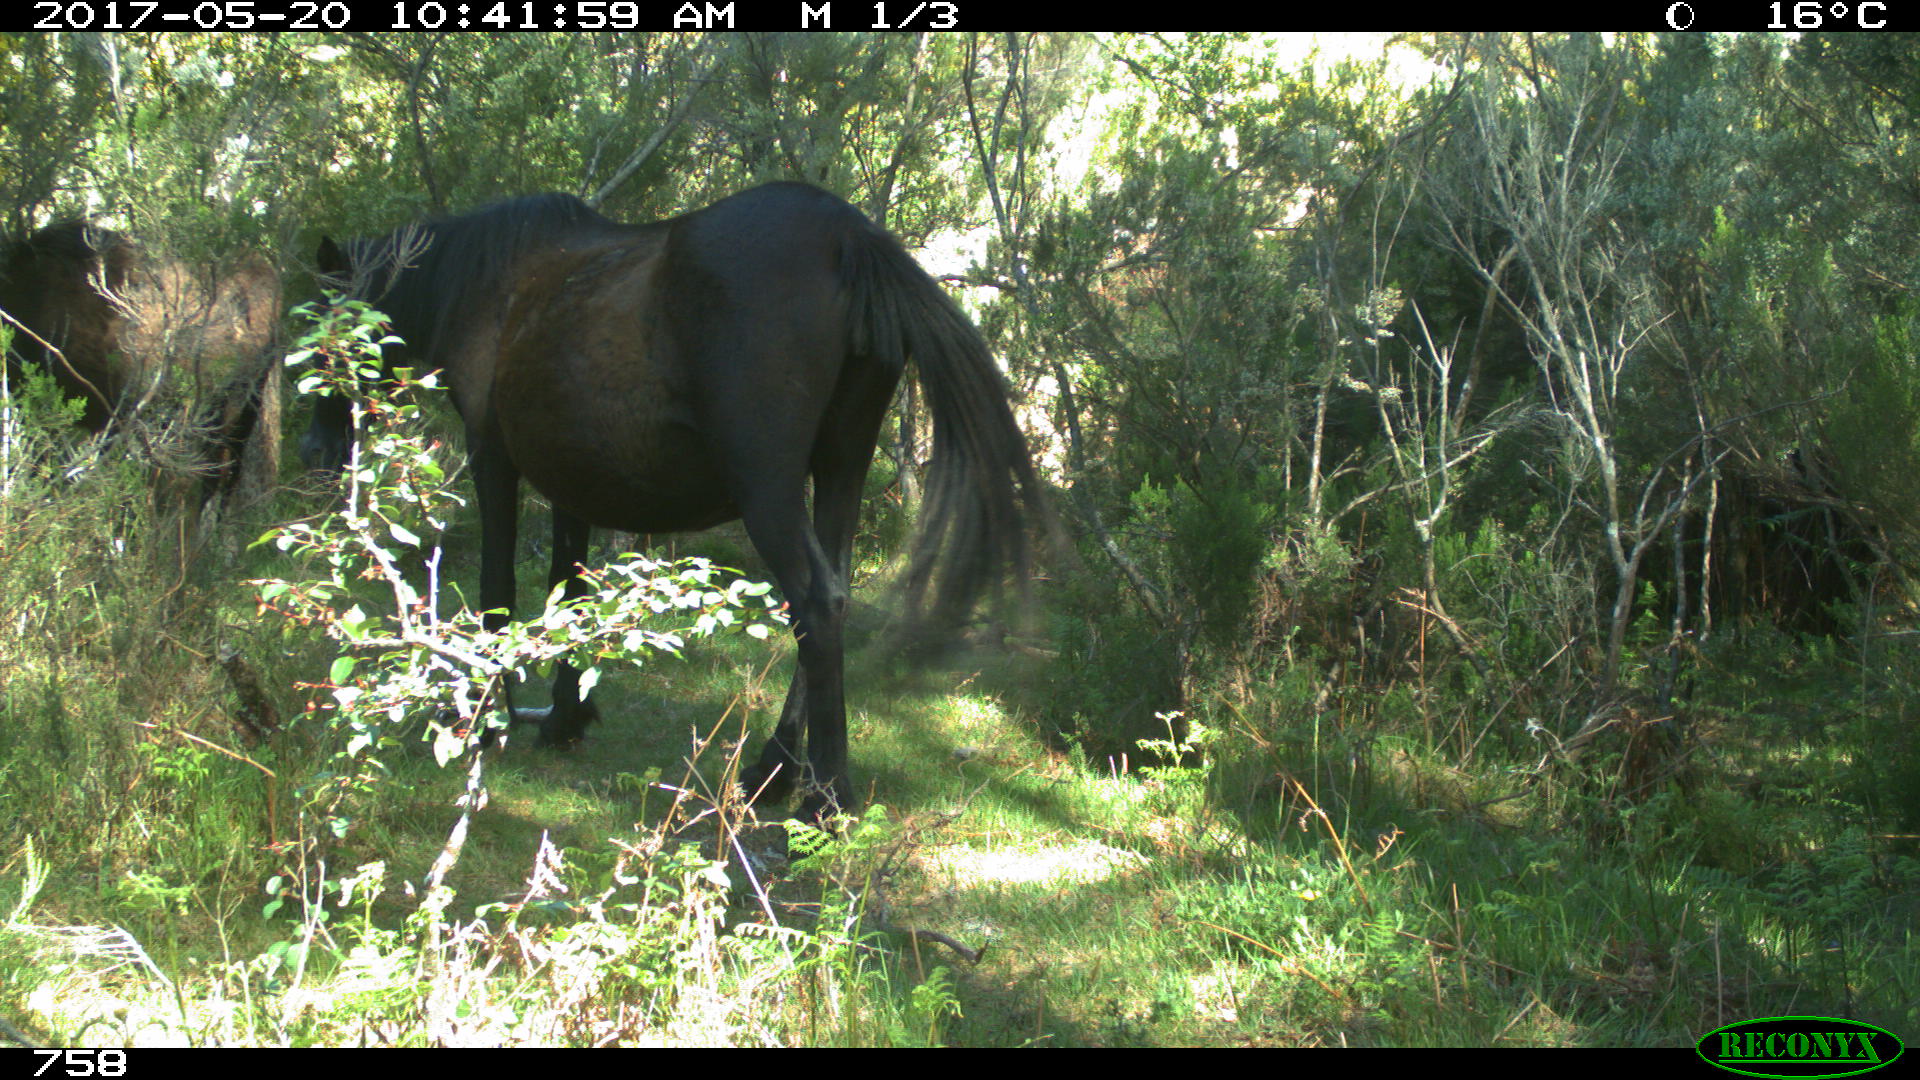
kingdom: Animalia
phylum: Chordata
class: Mammalia
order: Perissodactyla
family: Equidae
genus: Equus
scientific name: Equus caballus
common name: Horse
